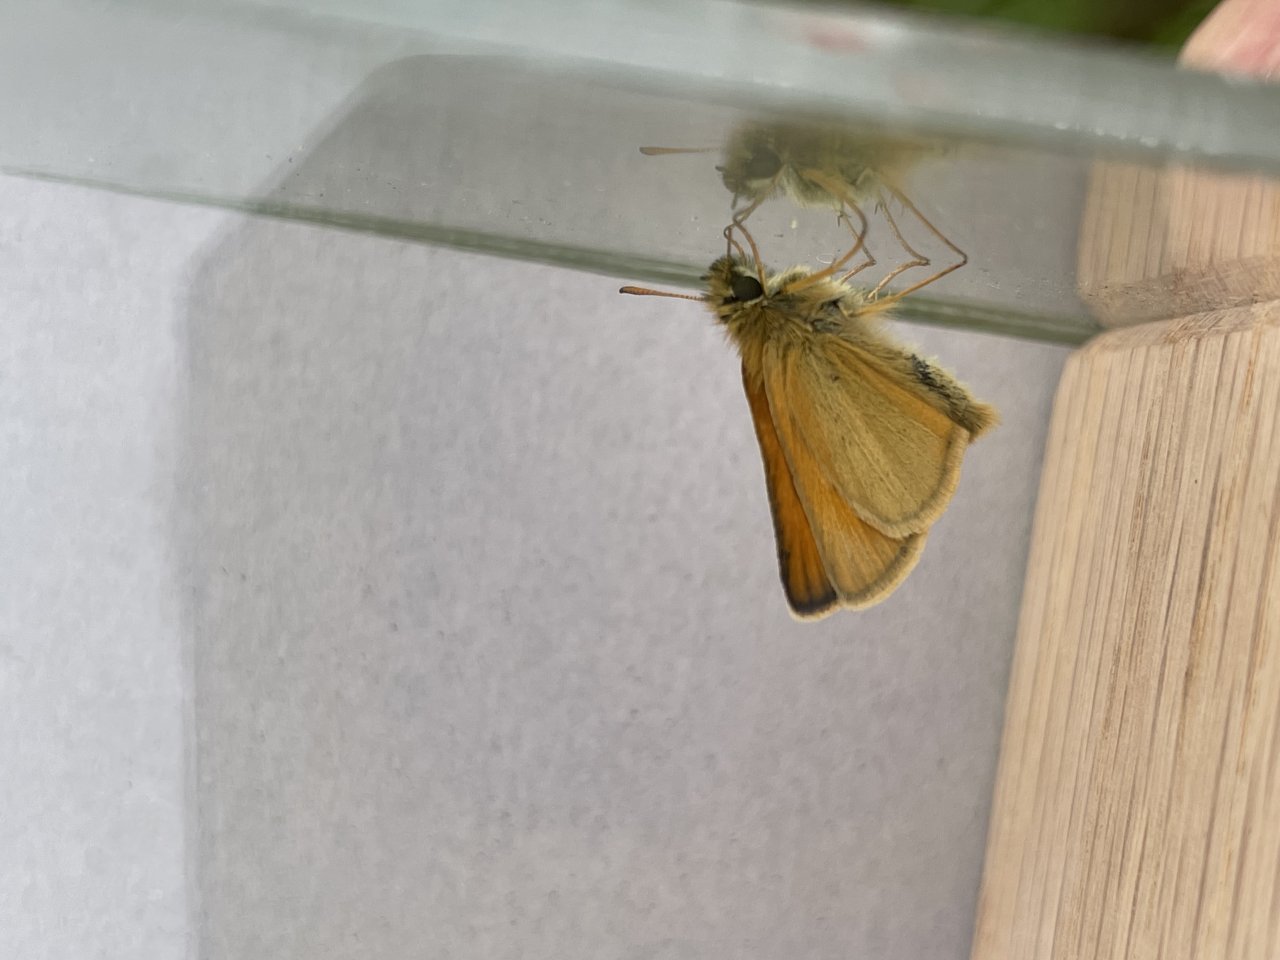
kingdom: Animalia
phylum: Arthropoda
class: Insecta
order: Lepidoptera
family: Hesperiidae
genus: Thymelicus
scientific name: Thymelicus lineola
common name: European Skipper
